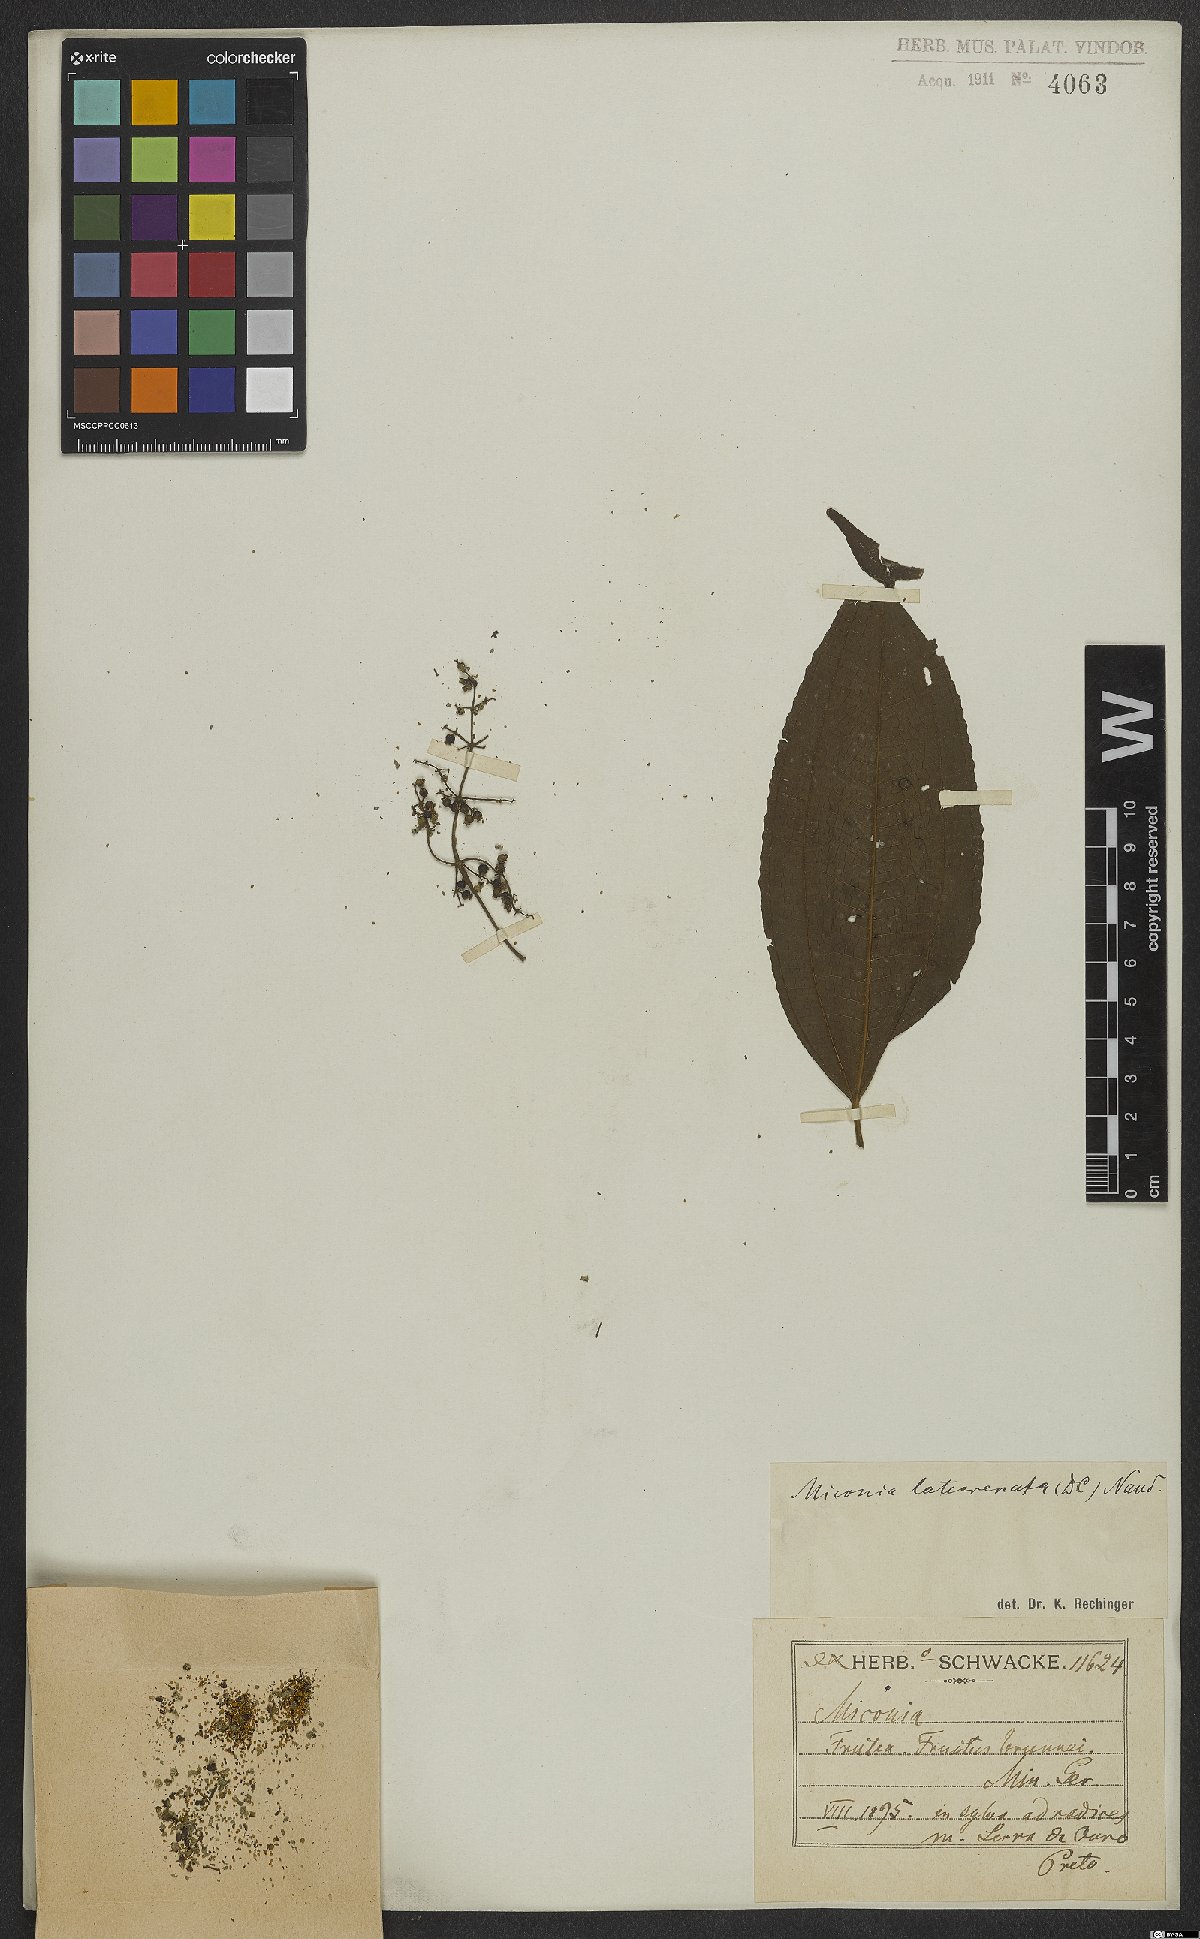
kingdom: Plantae
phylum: Tracheophyta
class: Magnoliopsida
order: Myrtales
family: Melastomataceae
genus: Miconia
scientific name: Miconia latecrenata
